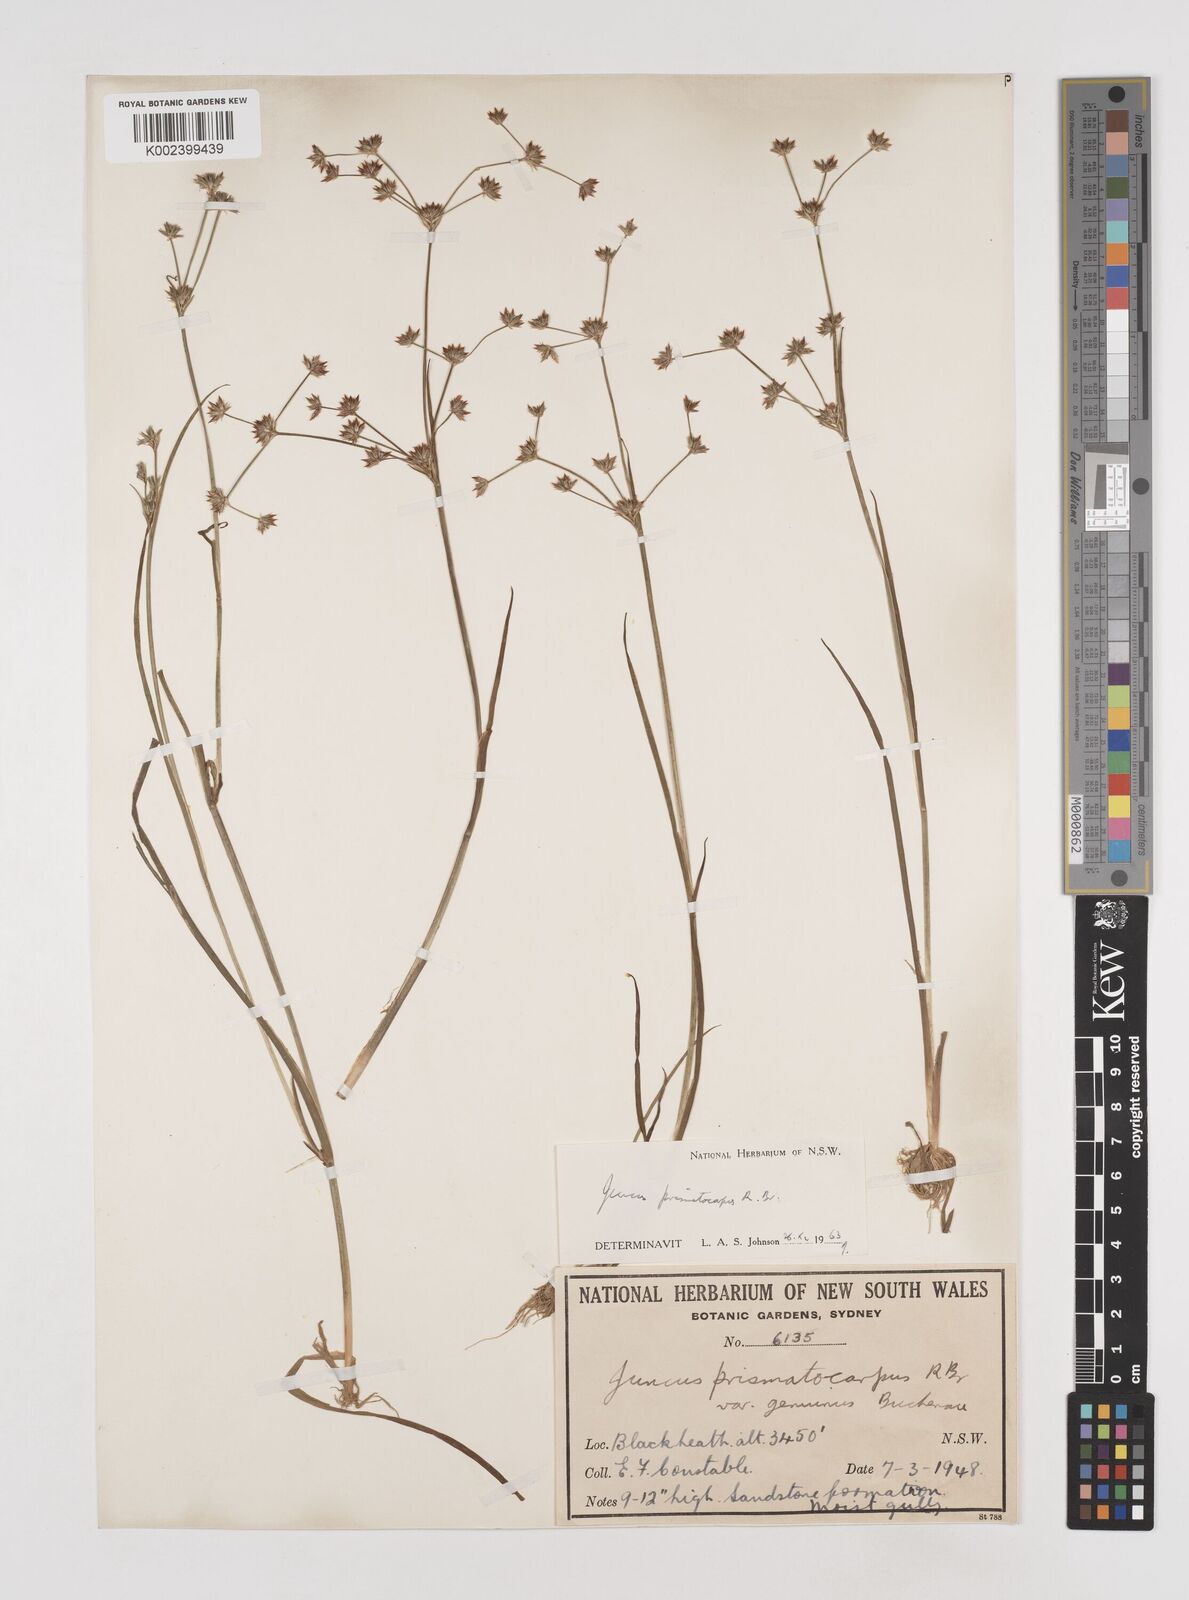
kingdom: Plantae
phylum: Tracheophyta
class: Liliopsida
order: Poales
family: Juncaceae
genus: Juncus
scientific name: Juncus prismatocarpus
